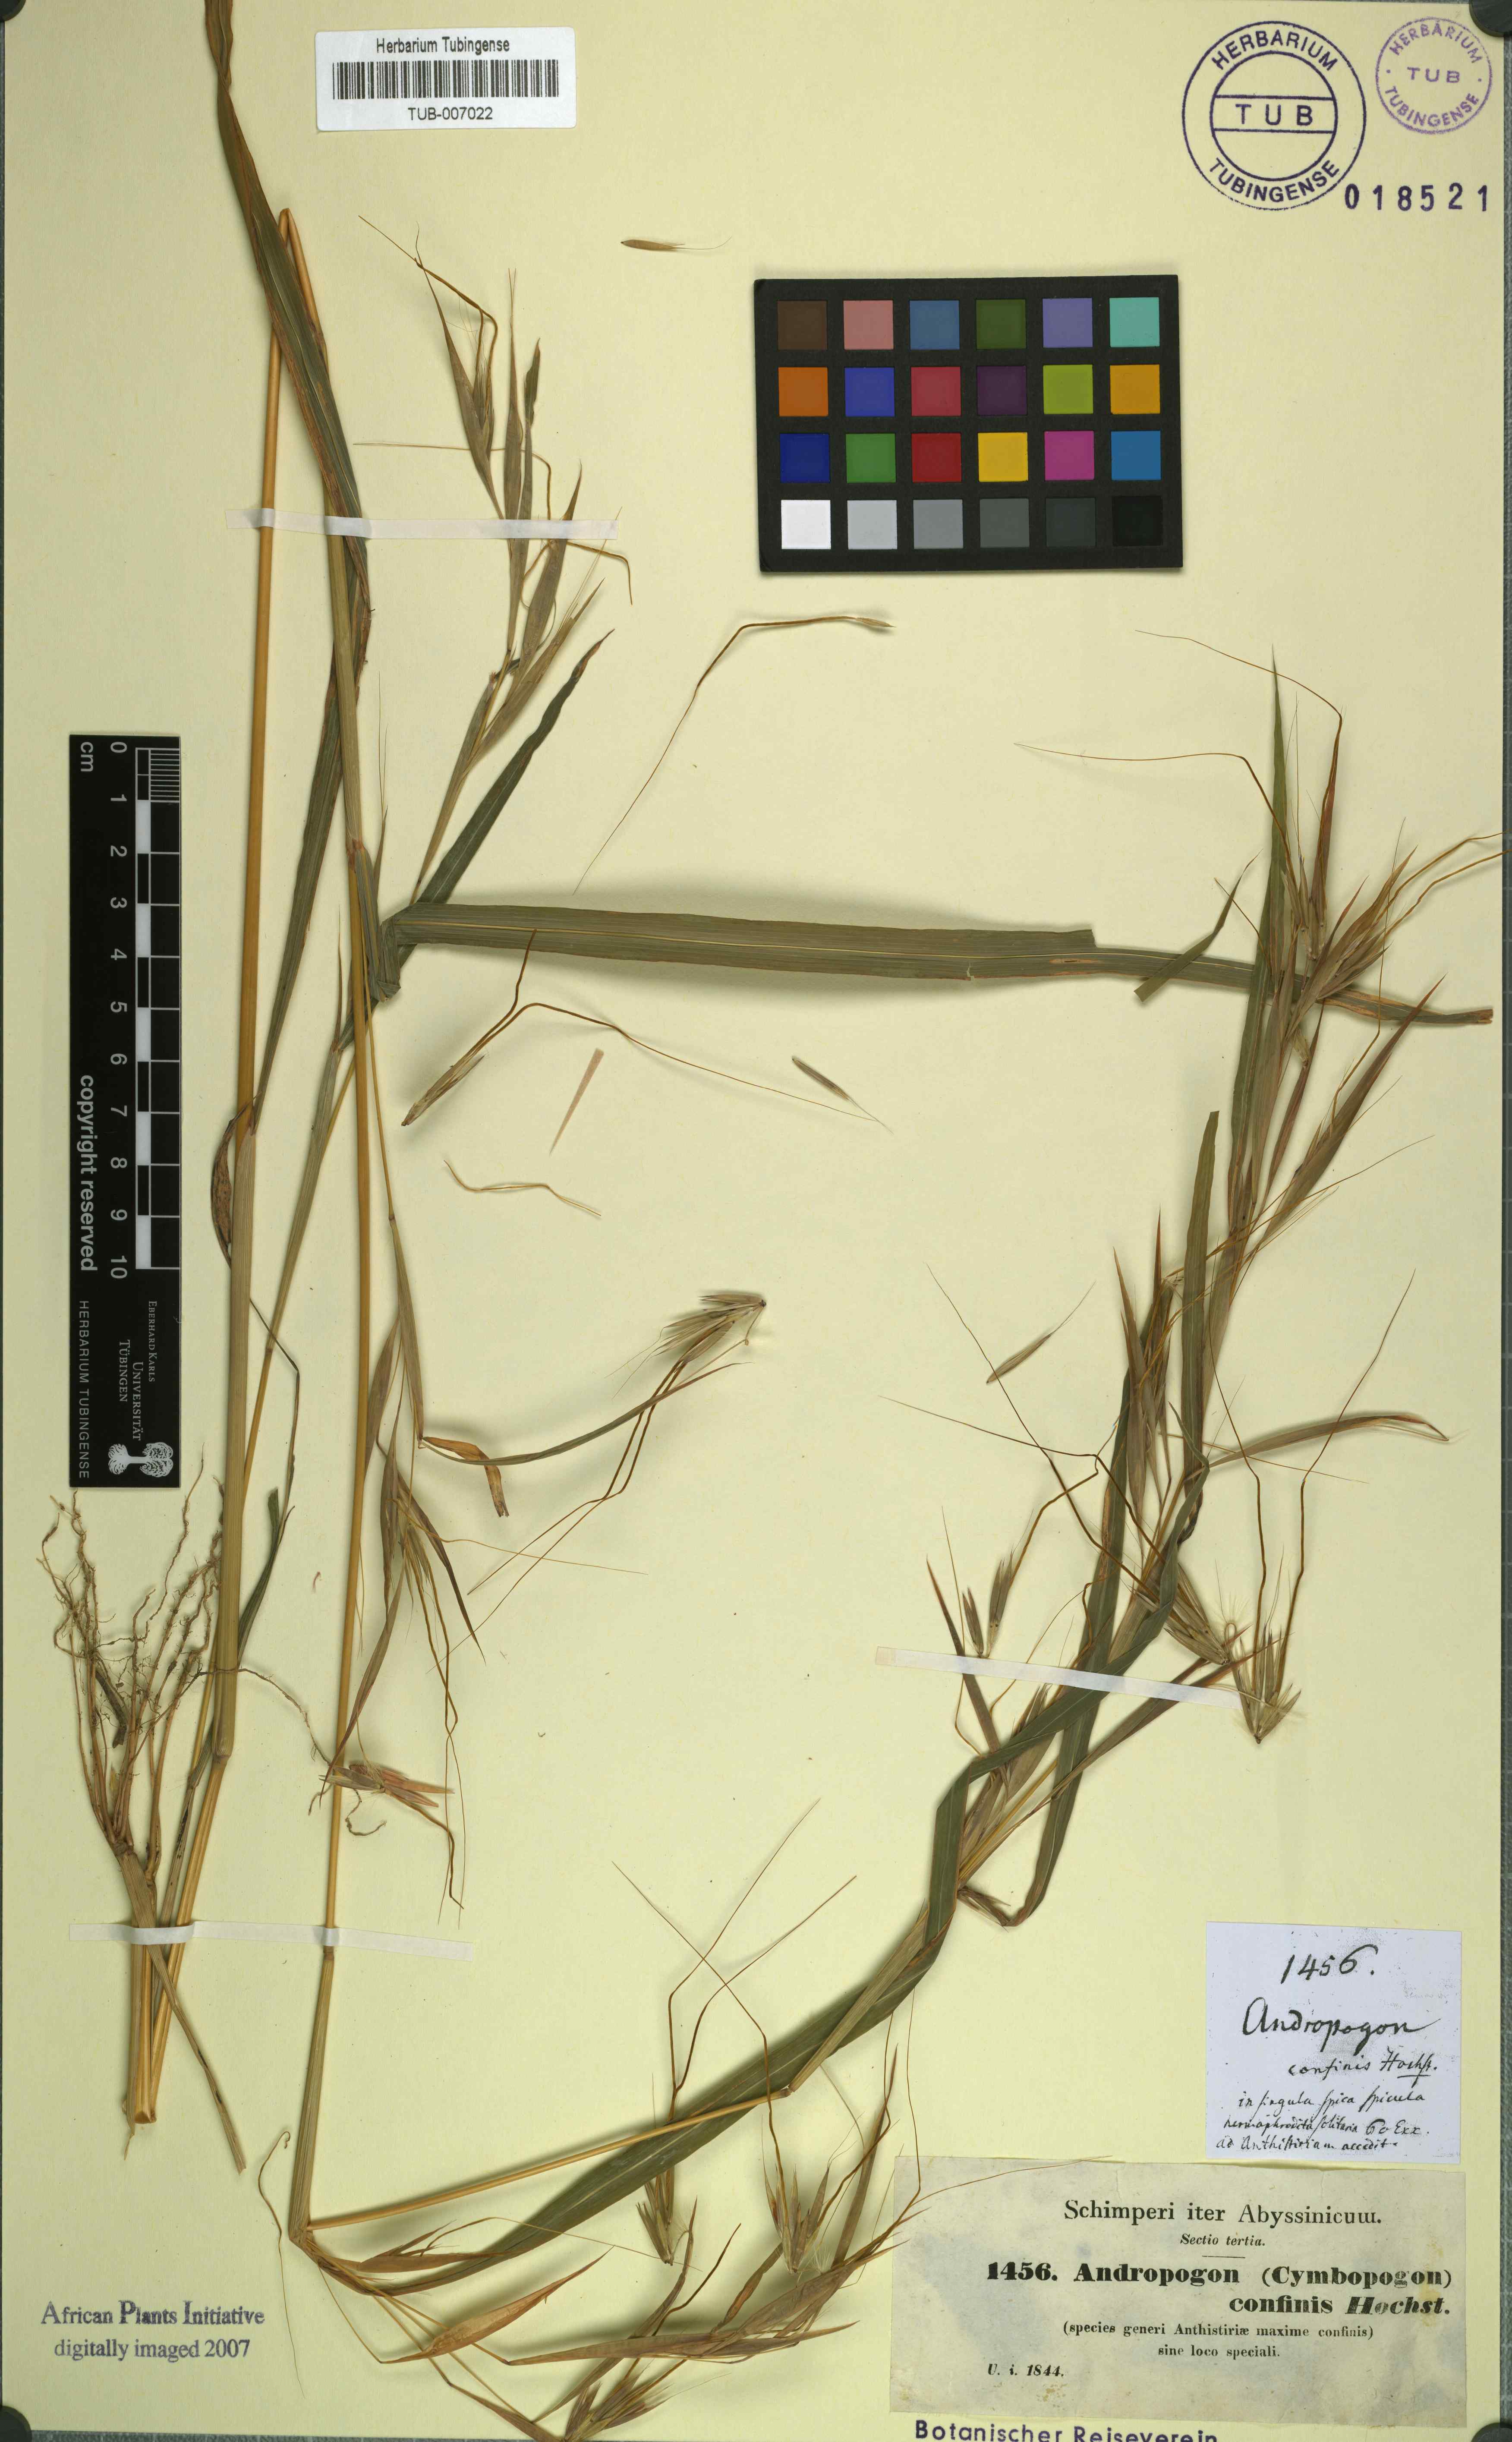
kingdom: Plantae
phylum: Tracheophyta
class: Liliopsida
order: Poales
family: Poaceae
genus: Hyparrhenia
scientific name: Hyparrhenia confinis
